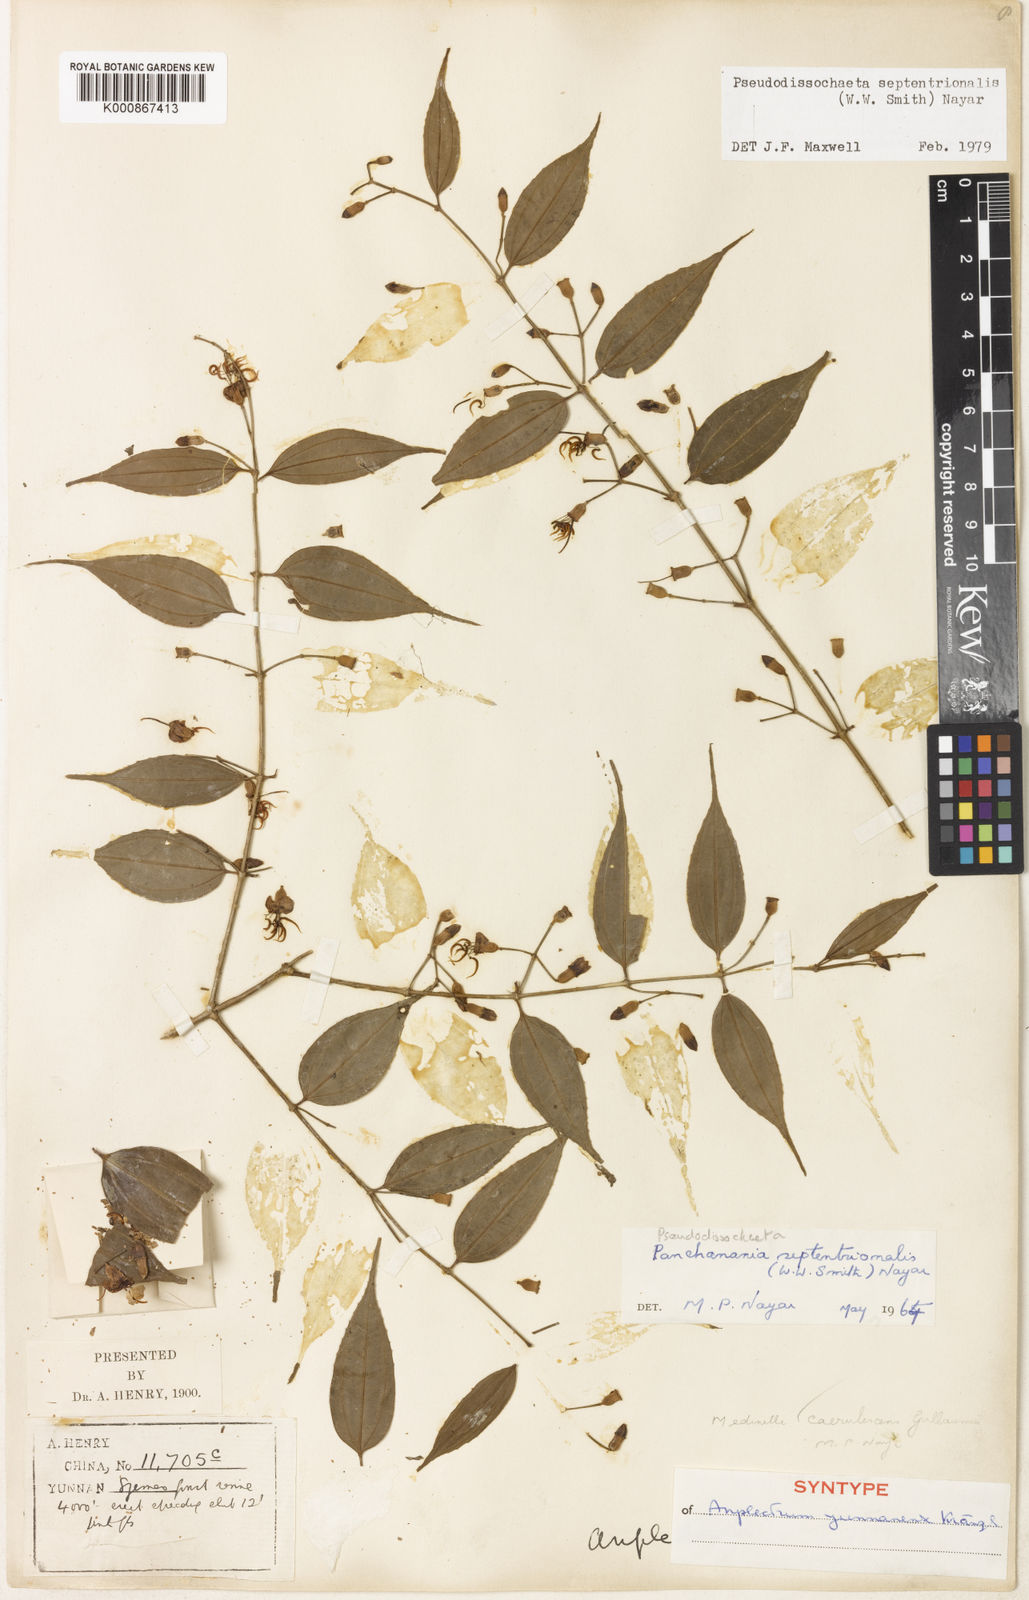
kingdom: Plantae
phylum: Tracheophyta
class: Magnoliopsida
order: Myrtales
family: Melastomataceae
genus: Pseudodissochaeta
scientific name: Pseudodissochaeta septentrionalis
